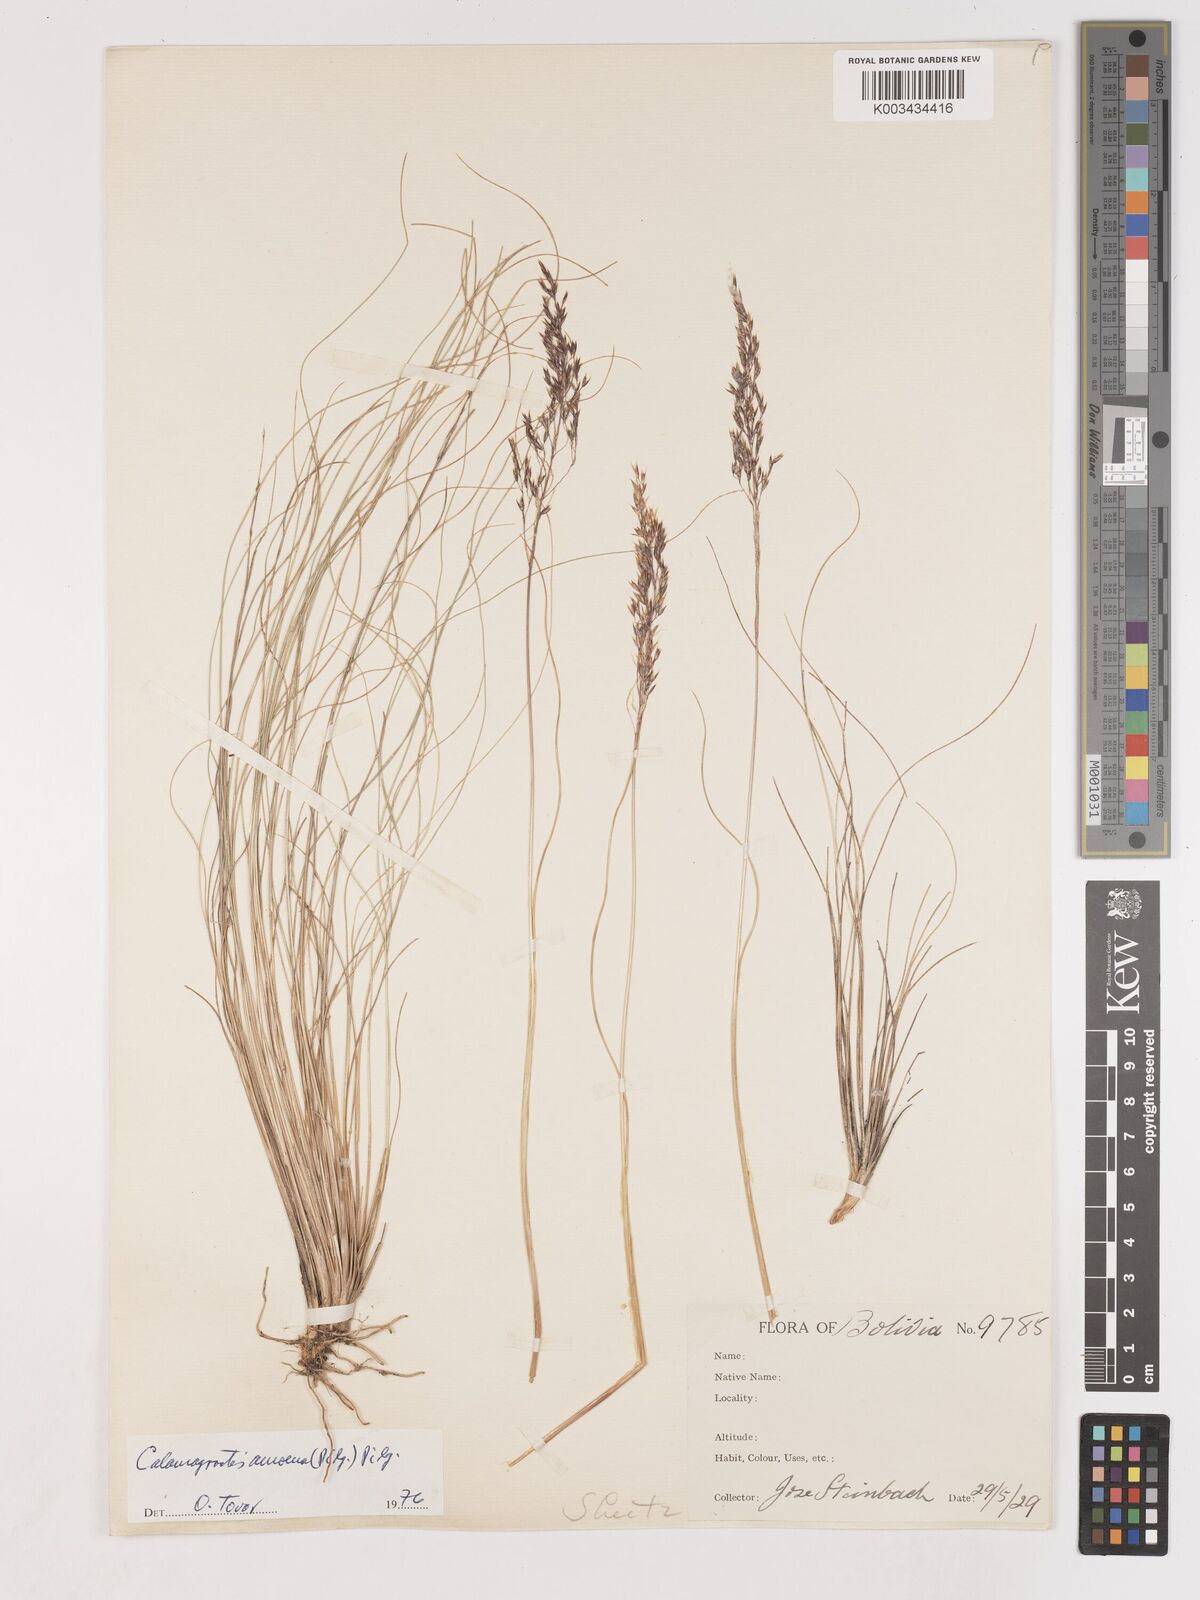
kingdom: Plantae
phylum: Tracheophyta
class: Liliopsida
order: Poales
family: Poaceae
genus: Cinnagrostis
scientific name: Cinnagrostis filifolia
